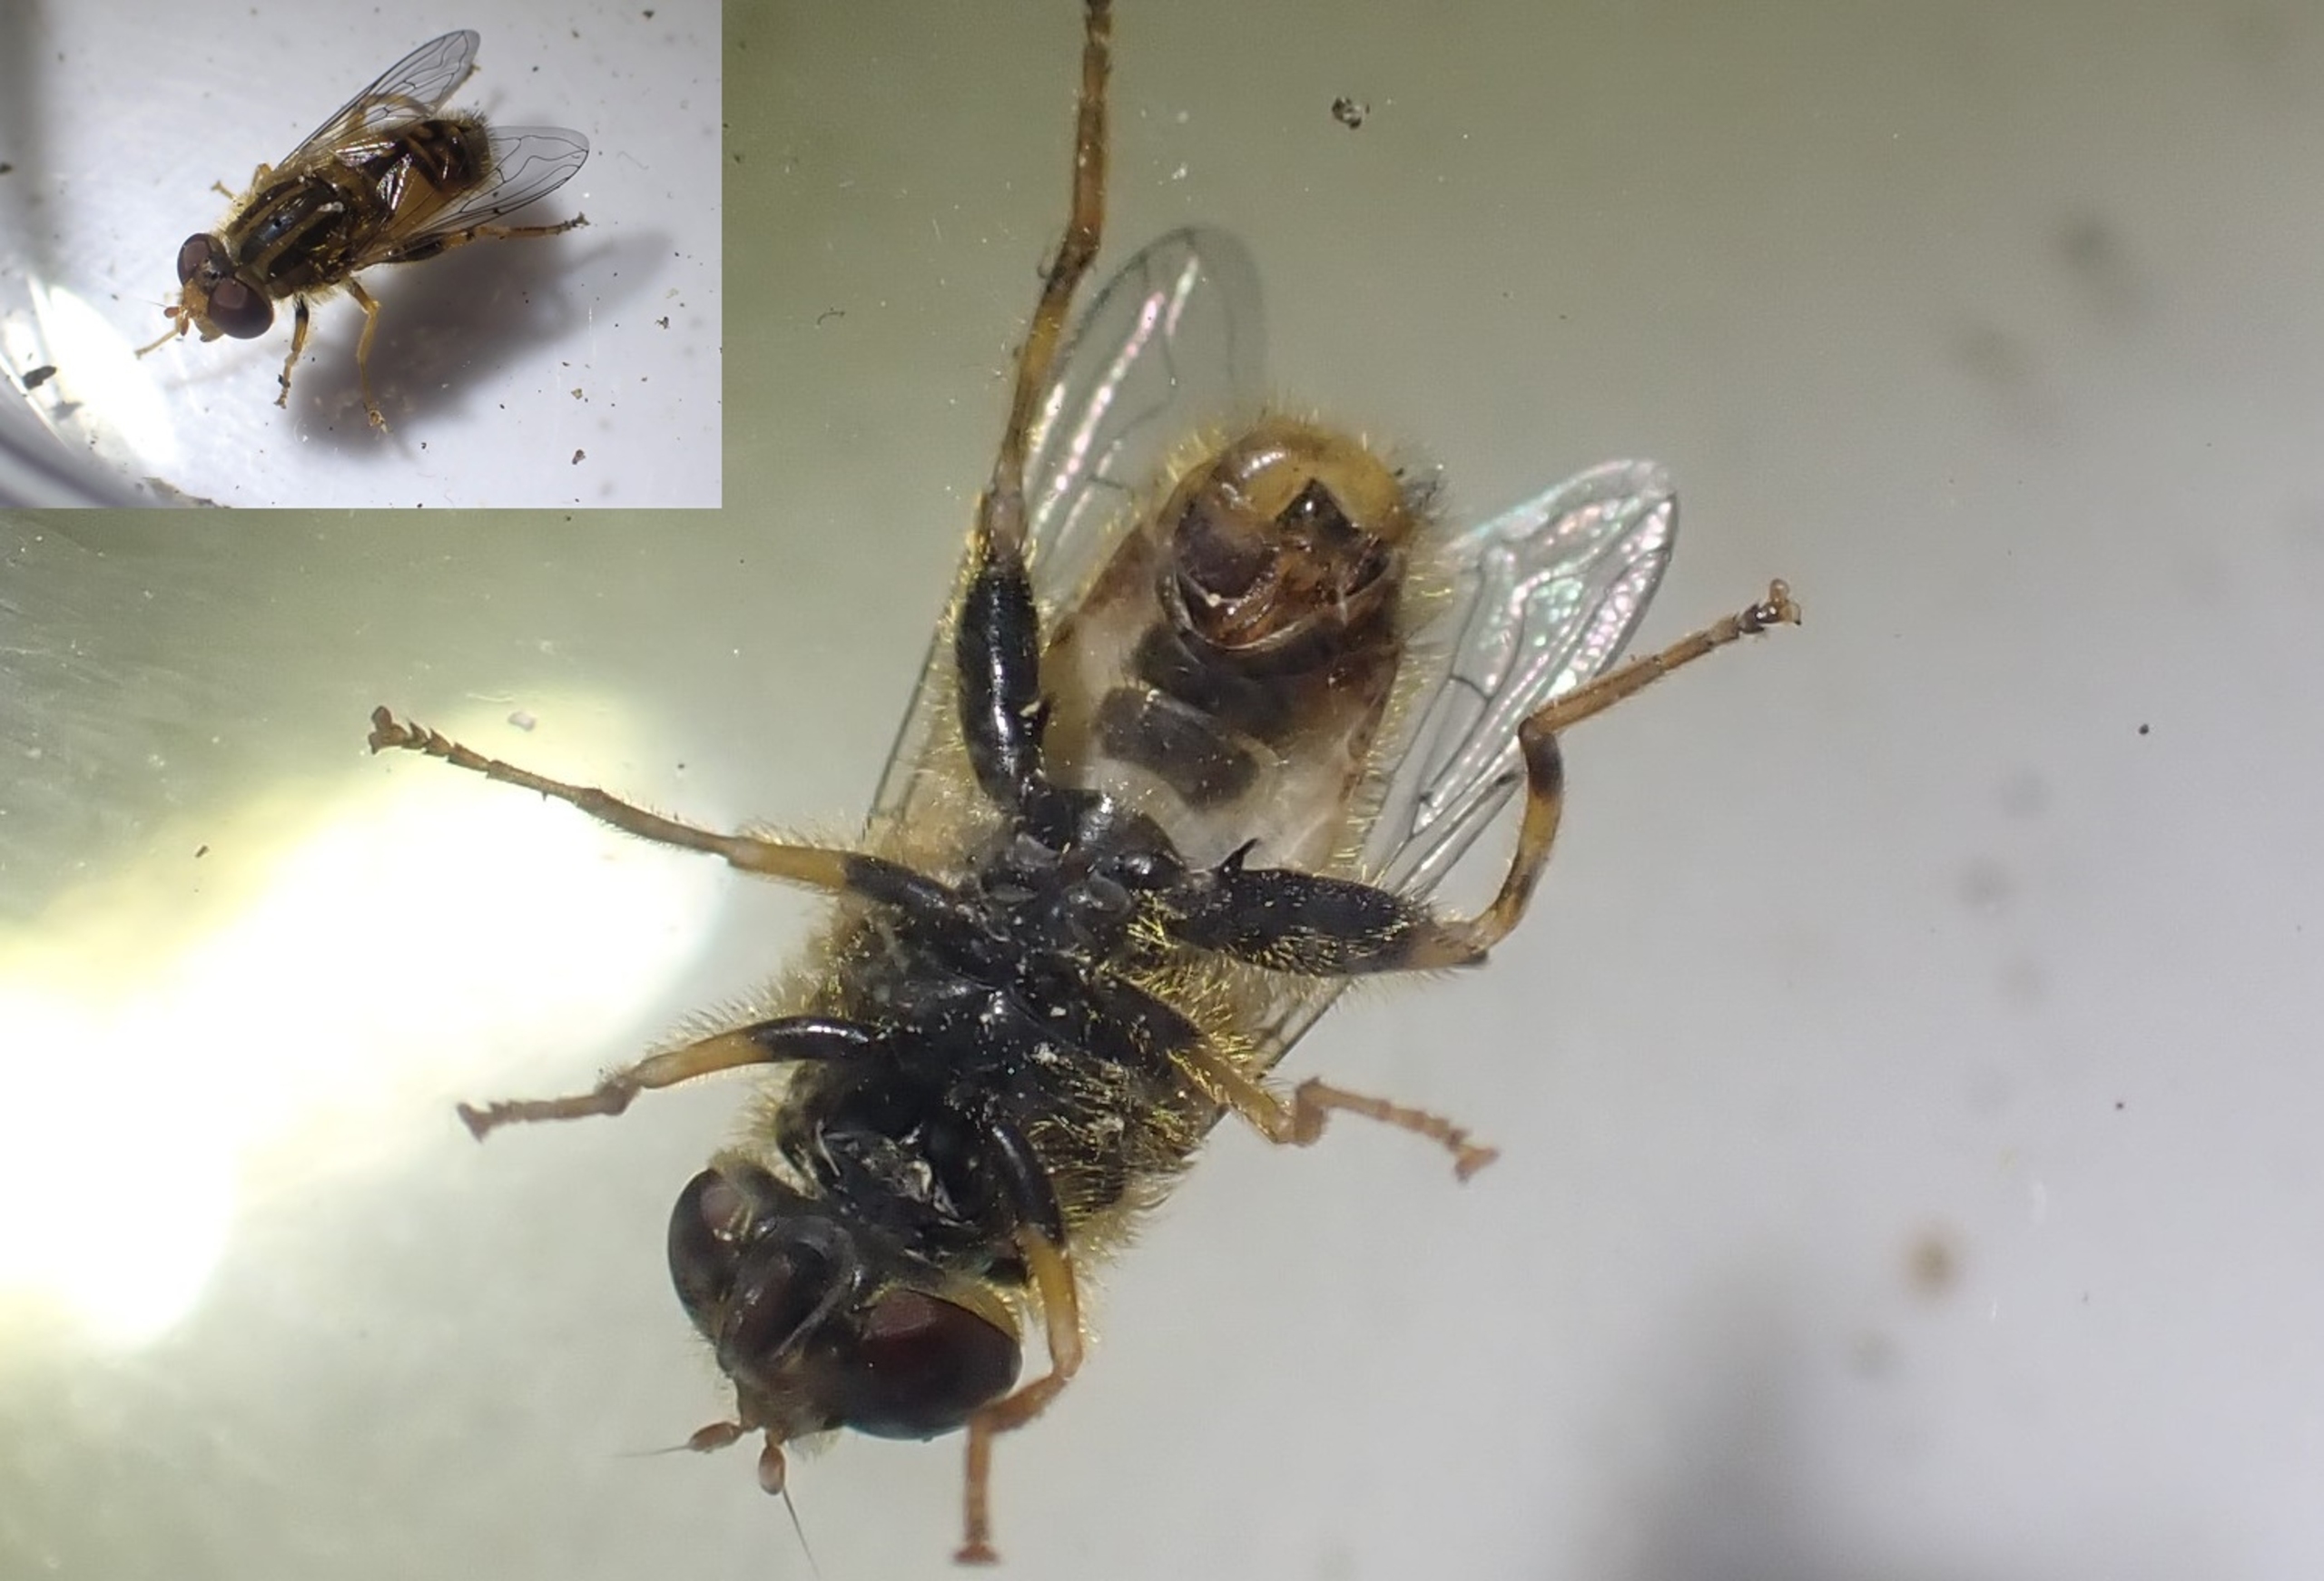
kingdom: Animalia
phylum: Arthropoda
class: Insecta
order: Diptera
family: Syrphidae
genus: Parhelophilus
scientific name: Parhelophilus frutetorum
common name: Krat-sumpsvirreflue
